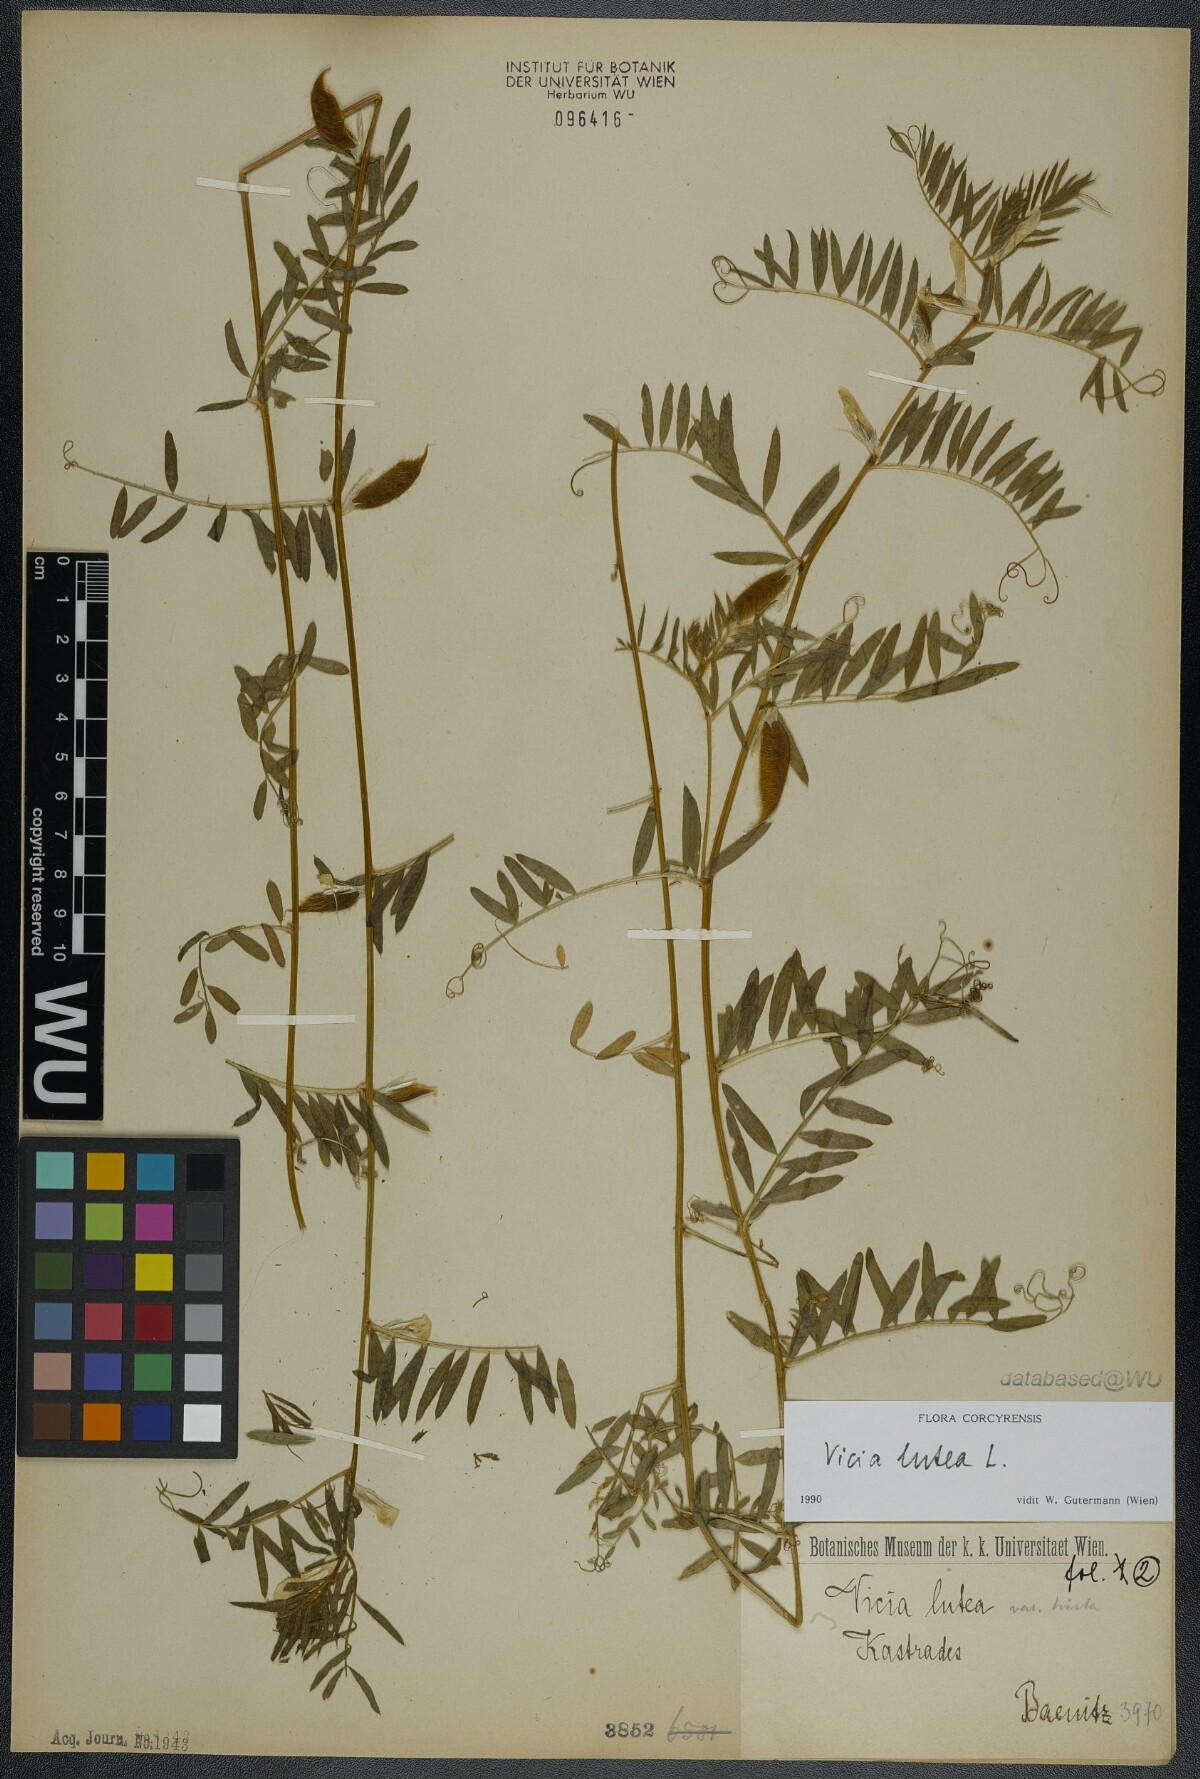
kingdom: Plantae
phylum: Tracheophyta
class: Magnoliopsida
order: Fabales
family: Fabaceae
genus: Vicia
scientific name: Vicia lutea
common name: Smooth yellow vetch
